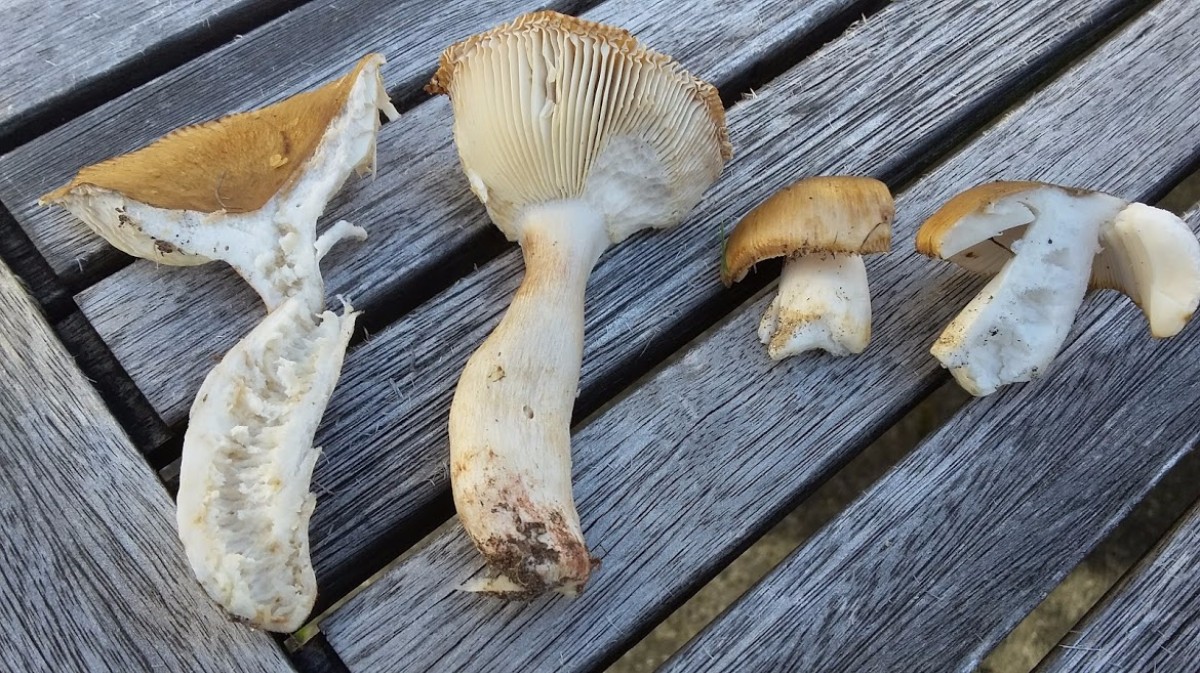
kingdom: Fungi
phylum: Basidiomycota
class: Agaricomycetes
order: Russulales
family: Russulaceae
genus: Russula
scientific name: Russula ochroleuca
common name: okkergul skørhat
